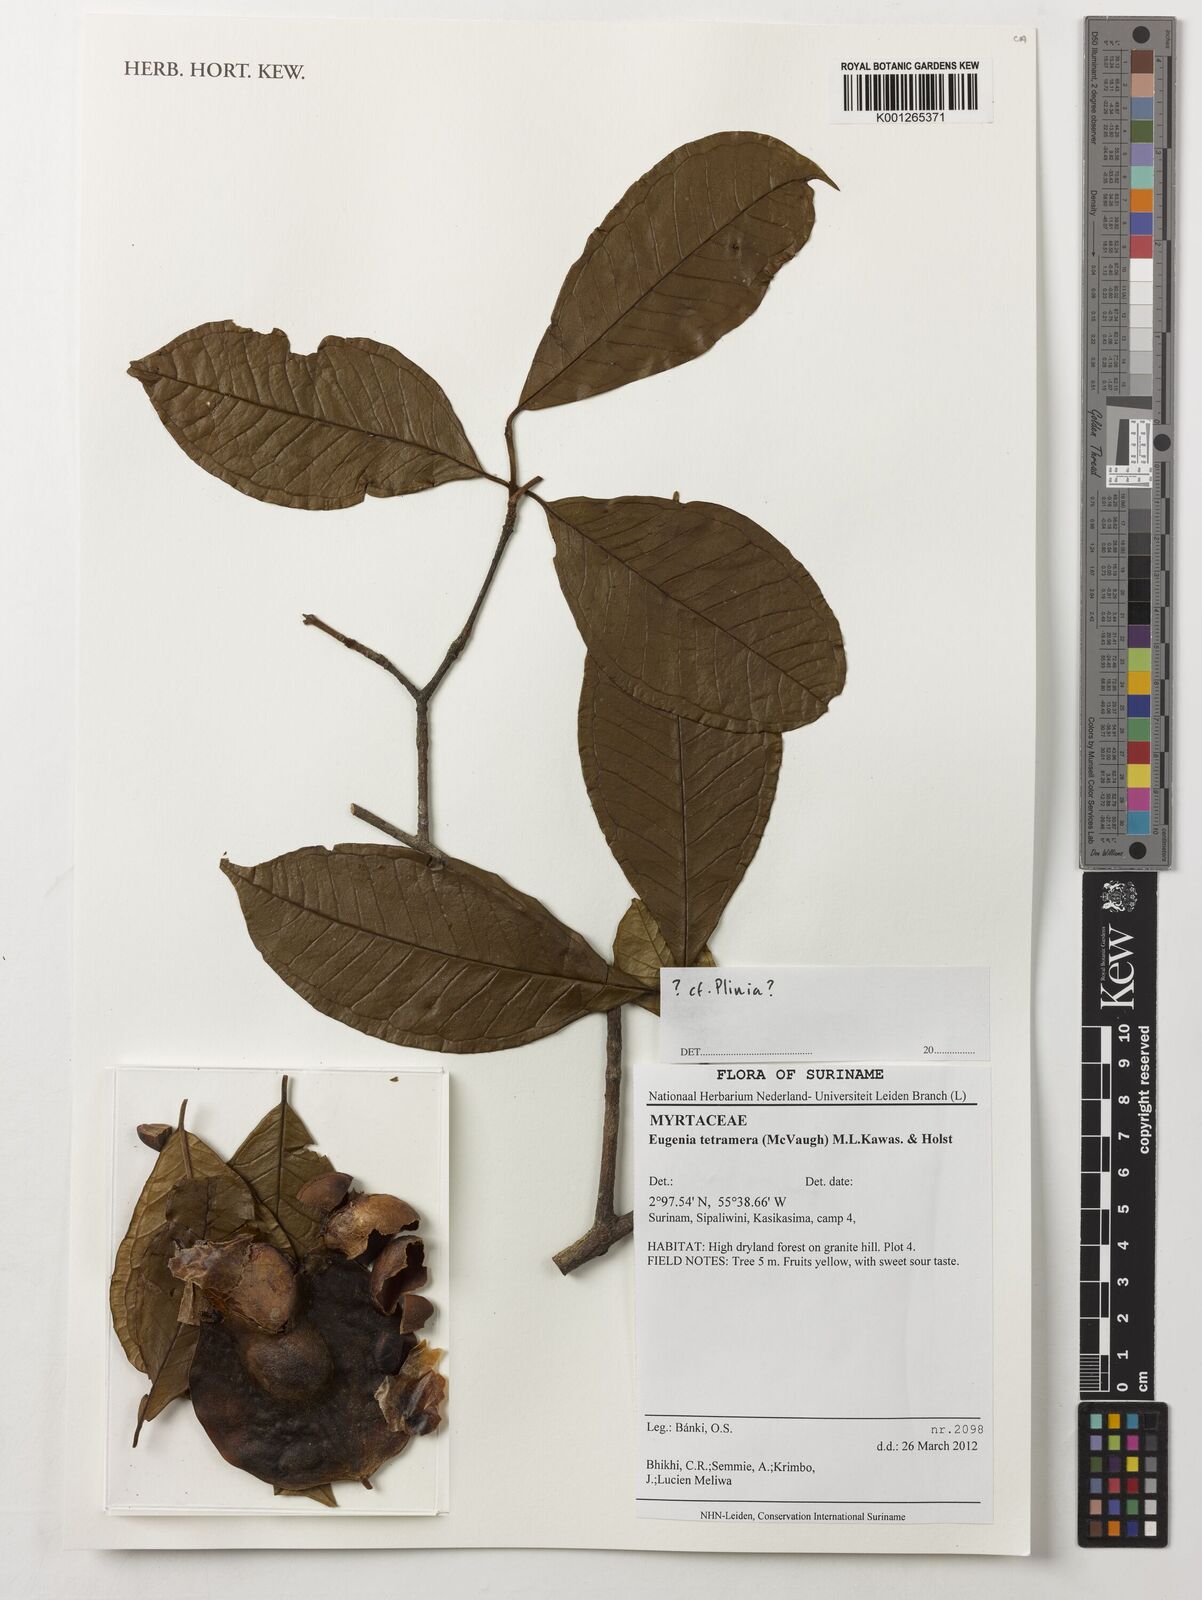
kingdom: Plantae
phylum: Tracheophyta
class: Magnoliopsida
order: Myrtales
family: Myrtaceae
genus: Eugenia
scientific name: Eugenia tetramera
